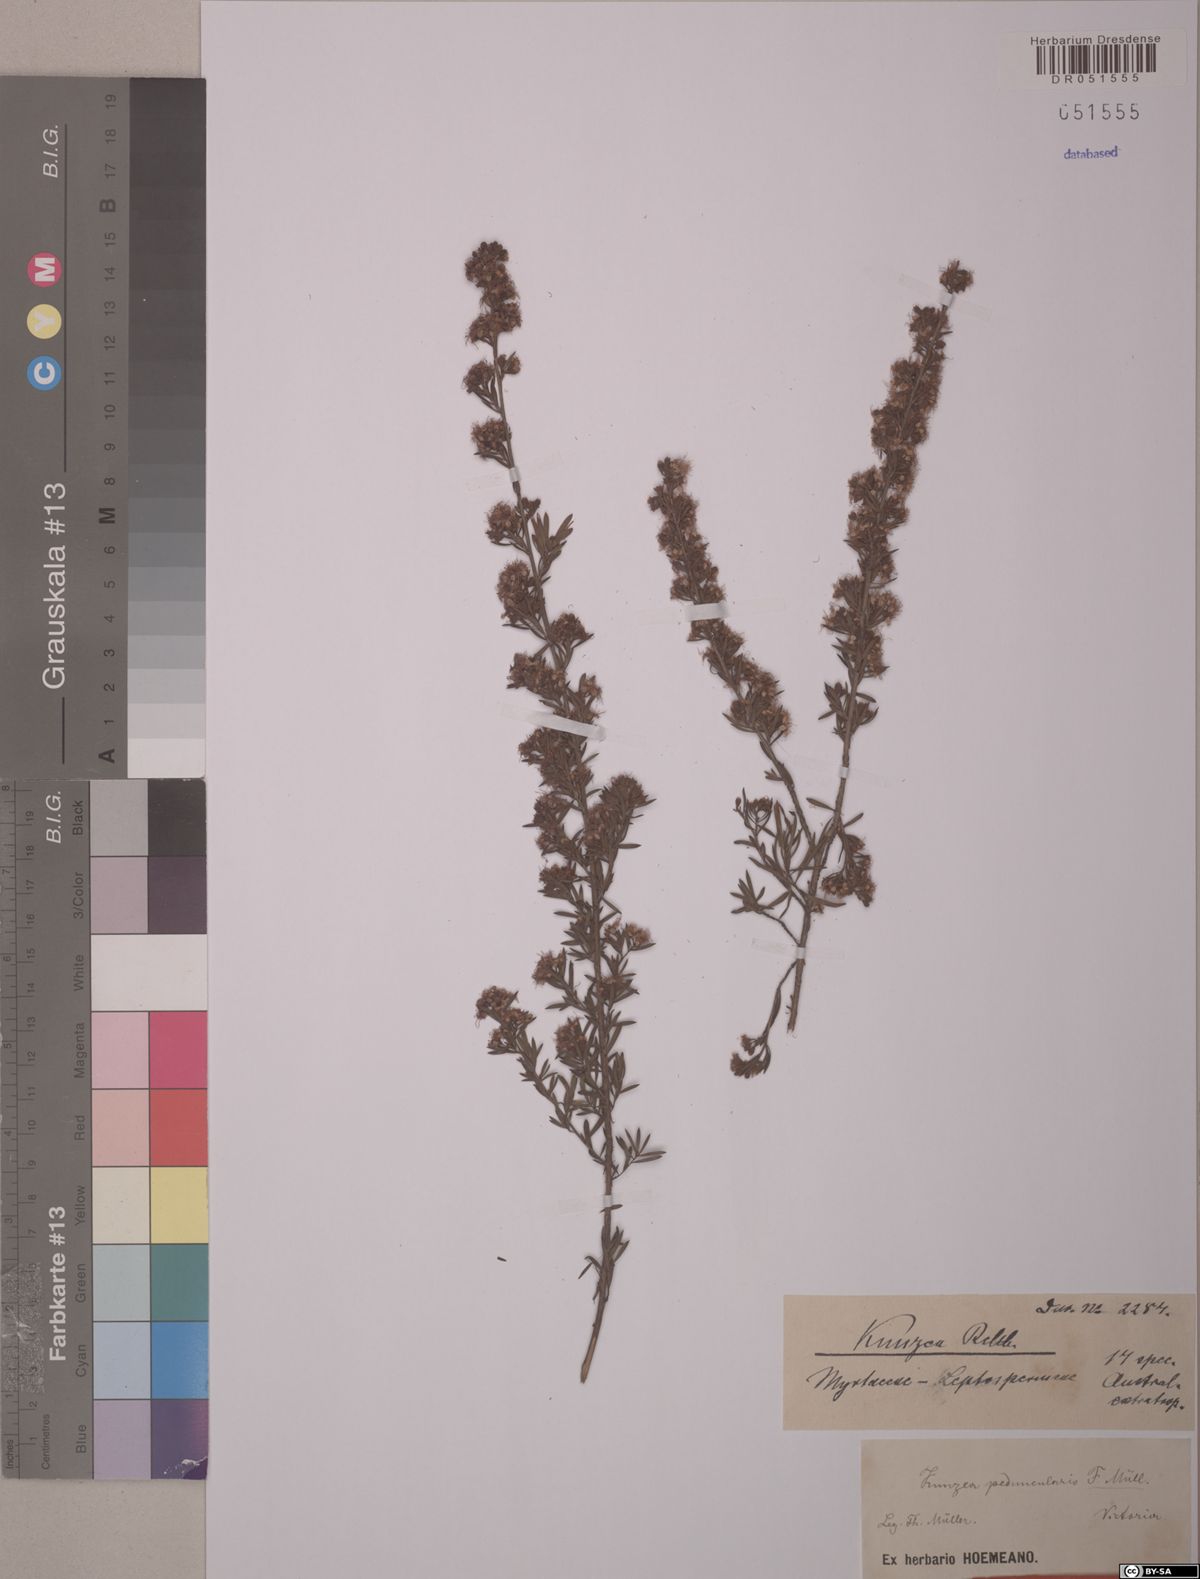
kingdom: Plantae
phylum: Tracheophyta
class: Magnoliopsida
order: Myrtales
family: Myrtaceae
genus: Kunzea
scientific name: Kunzea ericoides
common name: Burgan
